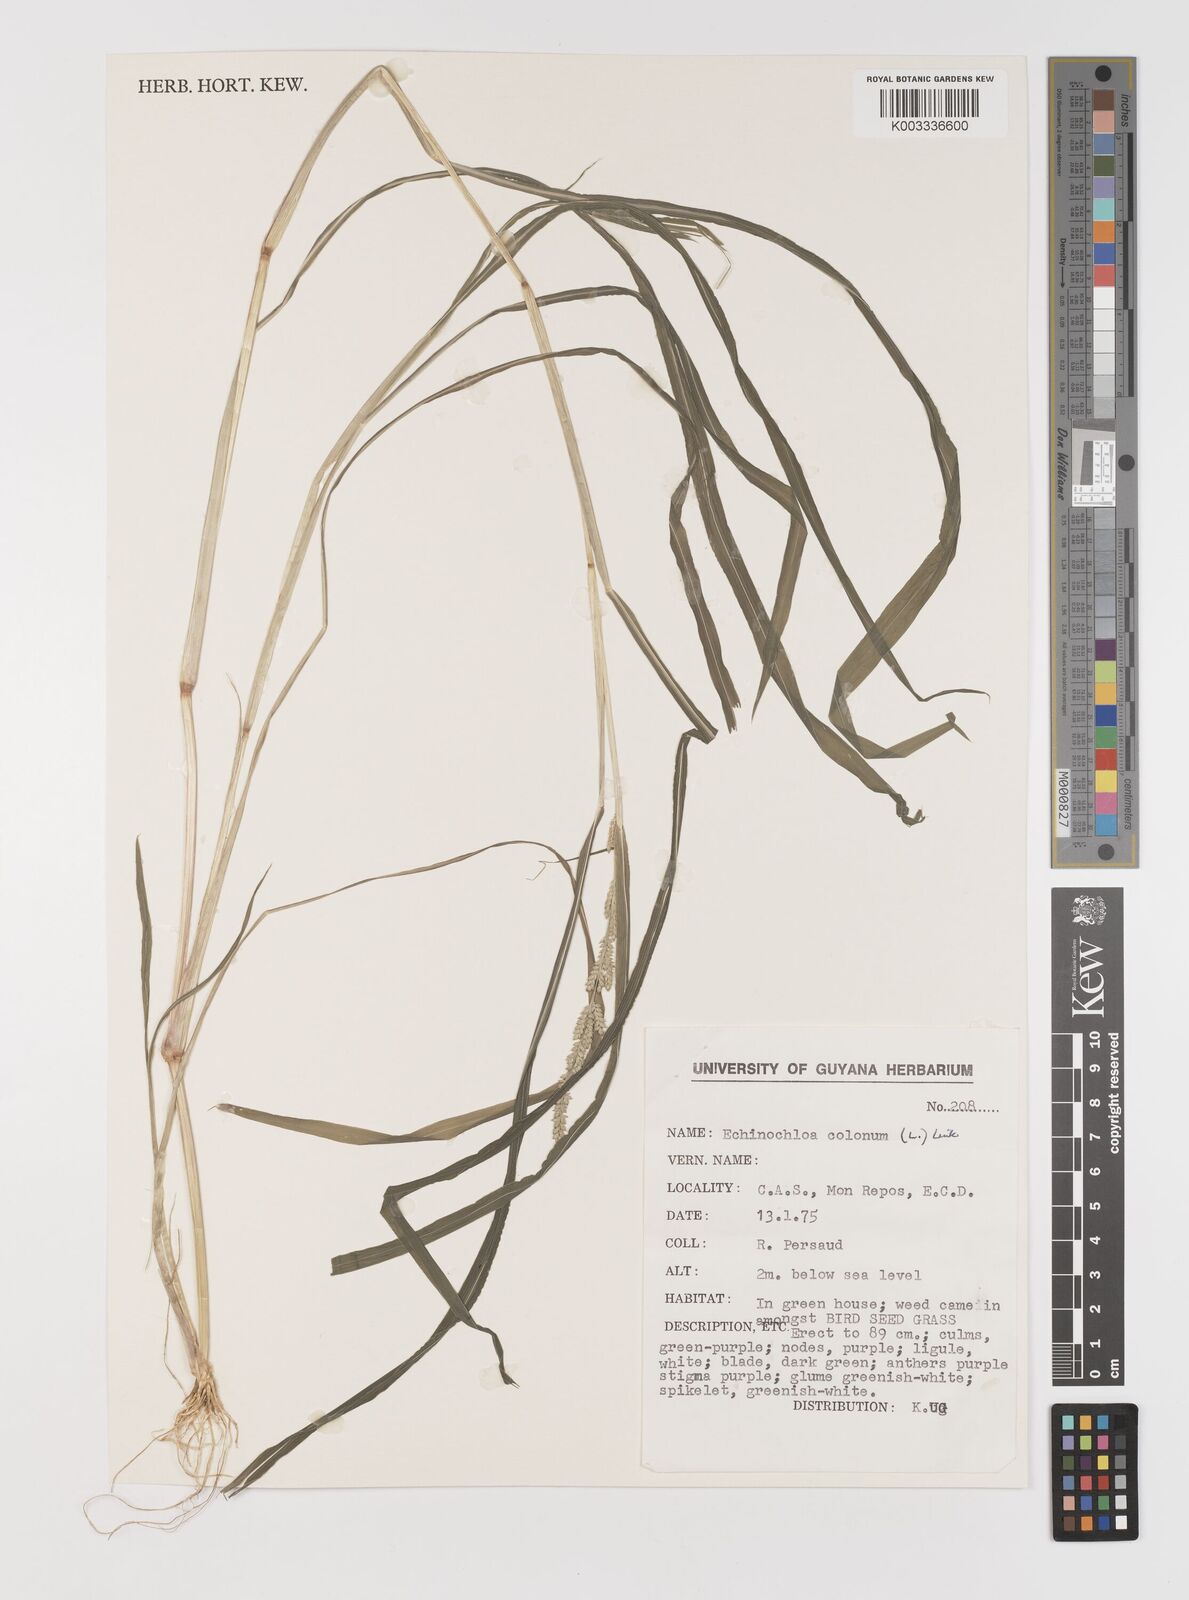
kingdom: Plantae
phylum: Tracheophyta
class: Liliopsida
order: Poales
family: Poaceae
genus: Echinochloa
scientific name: Echinochloa colonum
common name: Jungle rice
